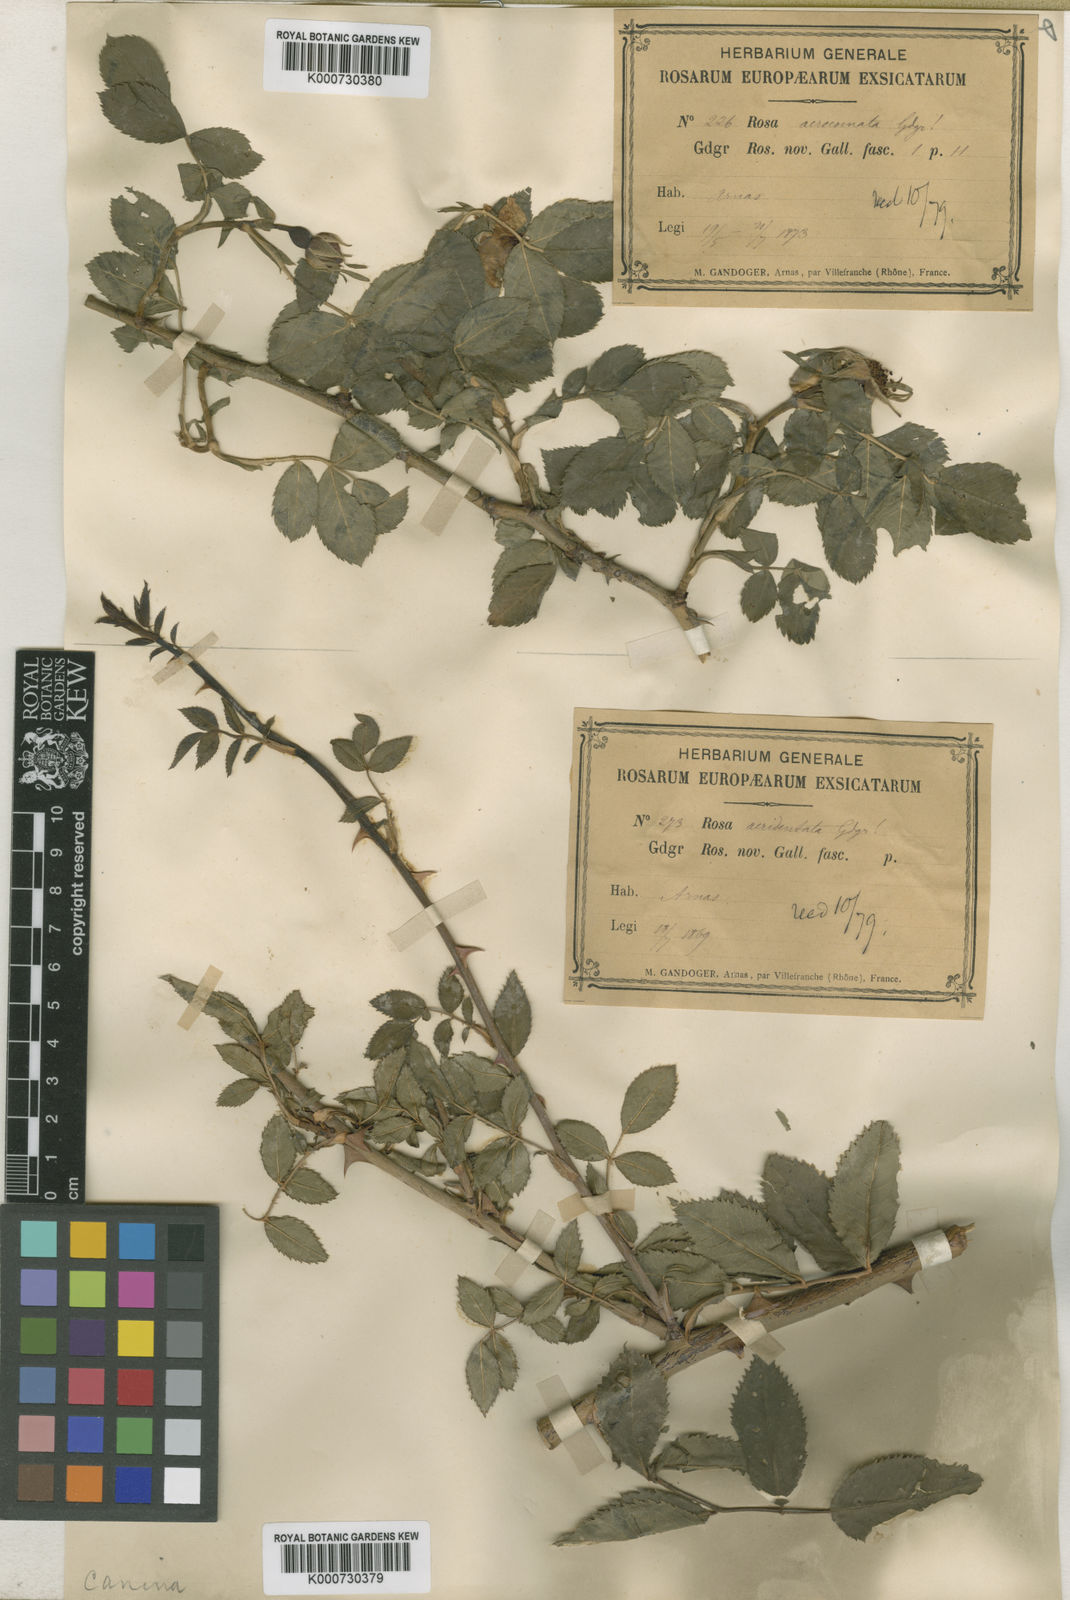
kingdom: Plantae
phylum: Tracheophyta
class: Magnoliopsida
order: Rosales
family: Rosaceae
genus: Rosa
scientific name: Rosa canina
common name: Dog rose
